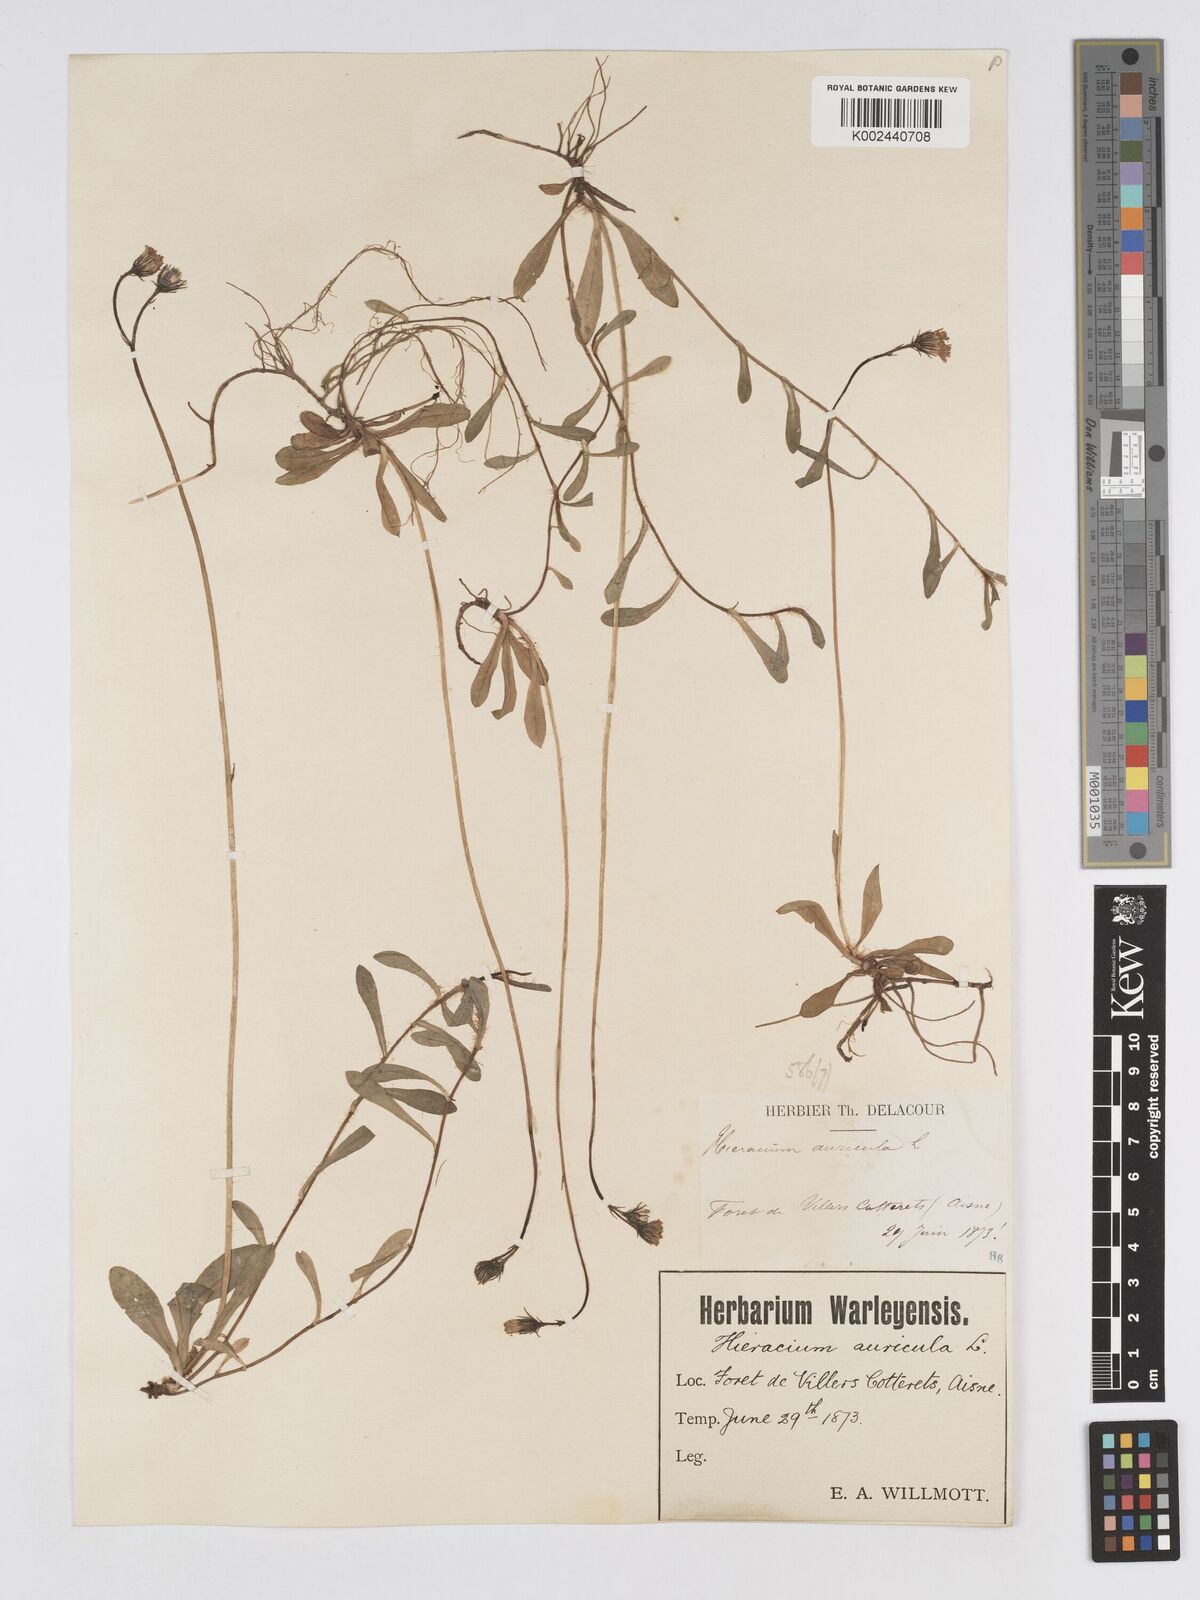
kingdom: Plantae
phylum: Tracheophyta
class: Magnoliopsida
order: Asterales
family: Asteraceae
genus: Pilosella
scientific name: Pilosella floribunda
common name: Glaucous hawkweed
